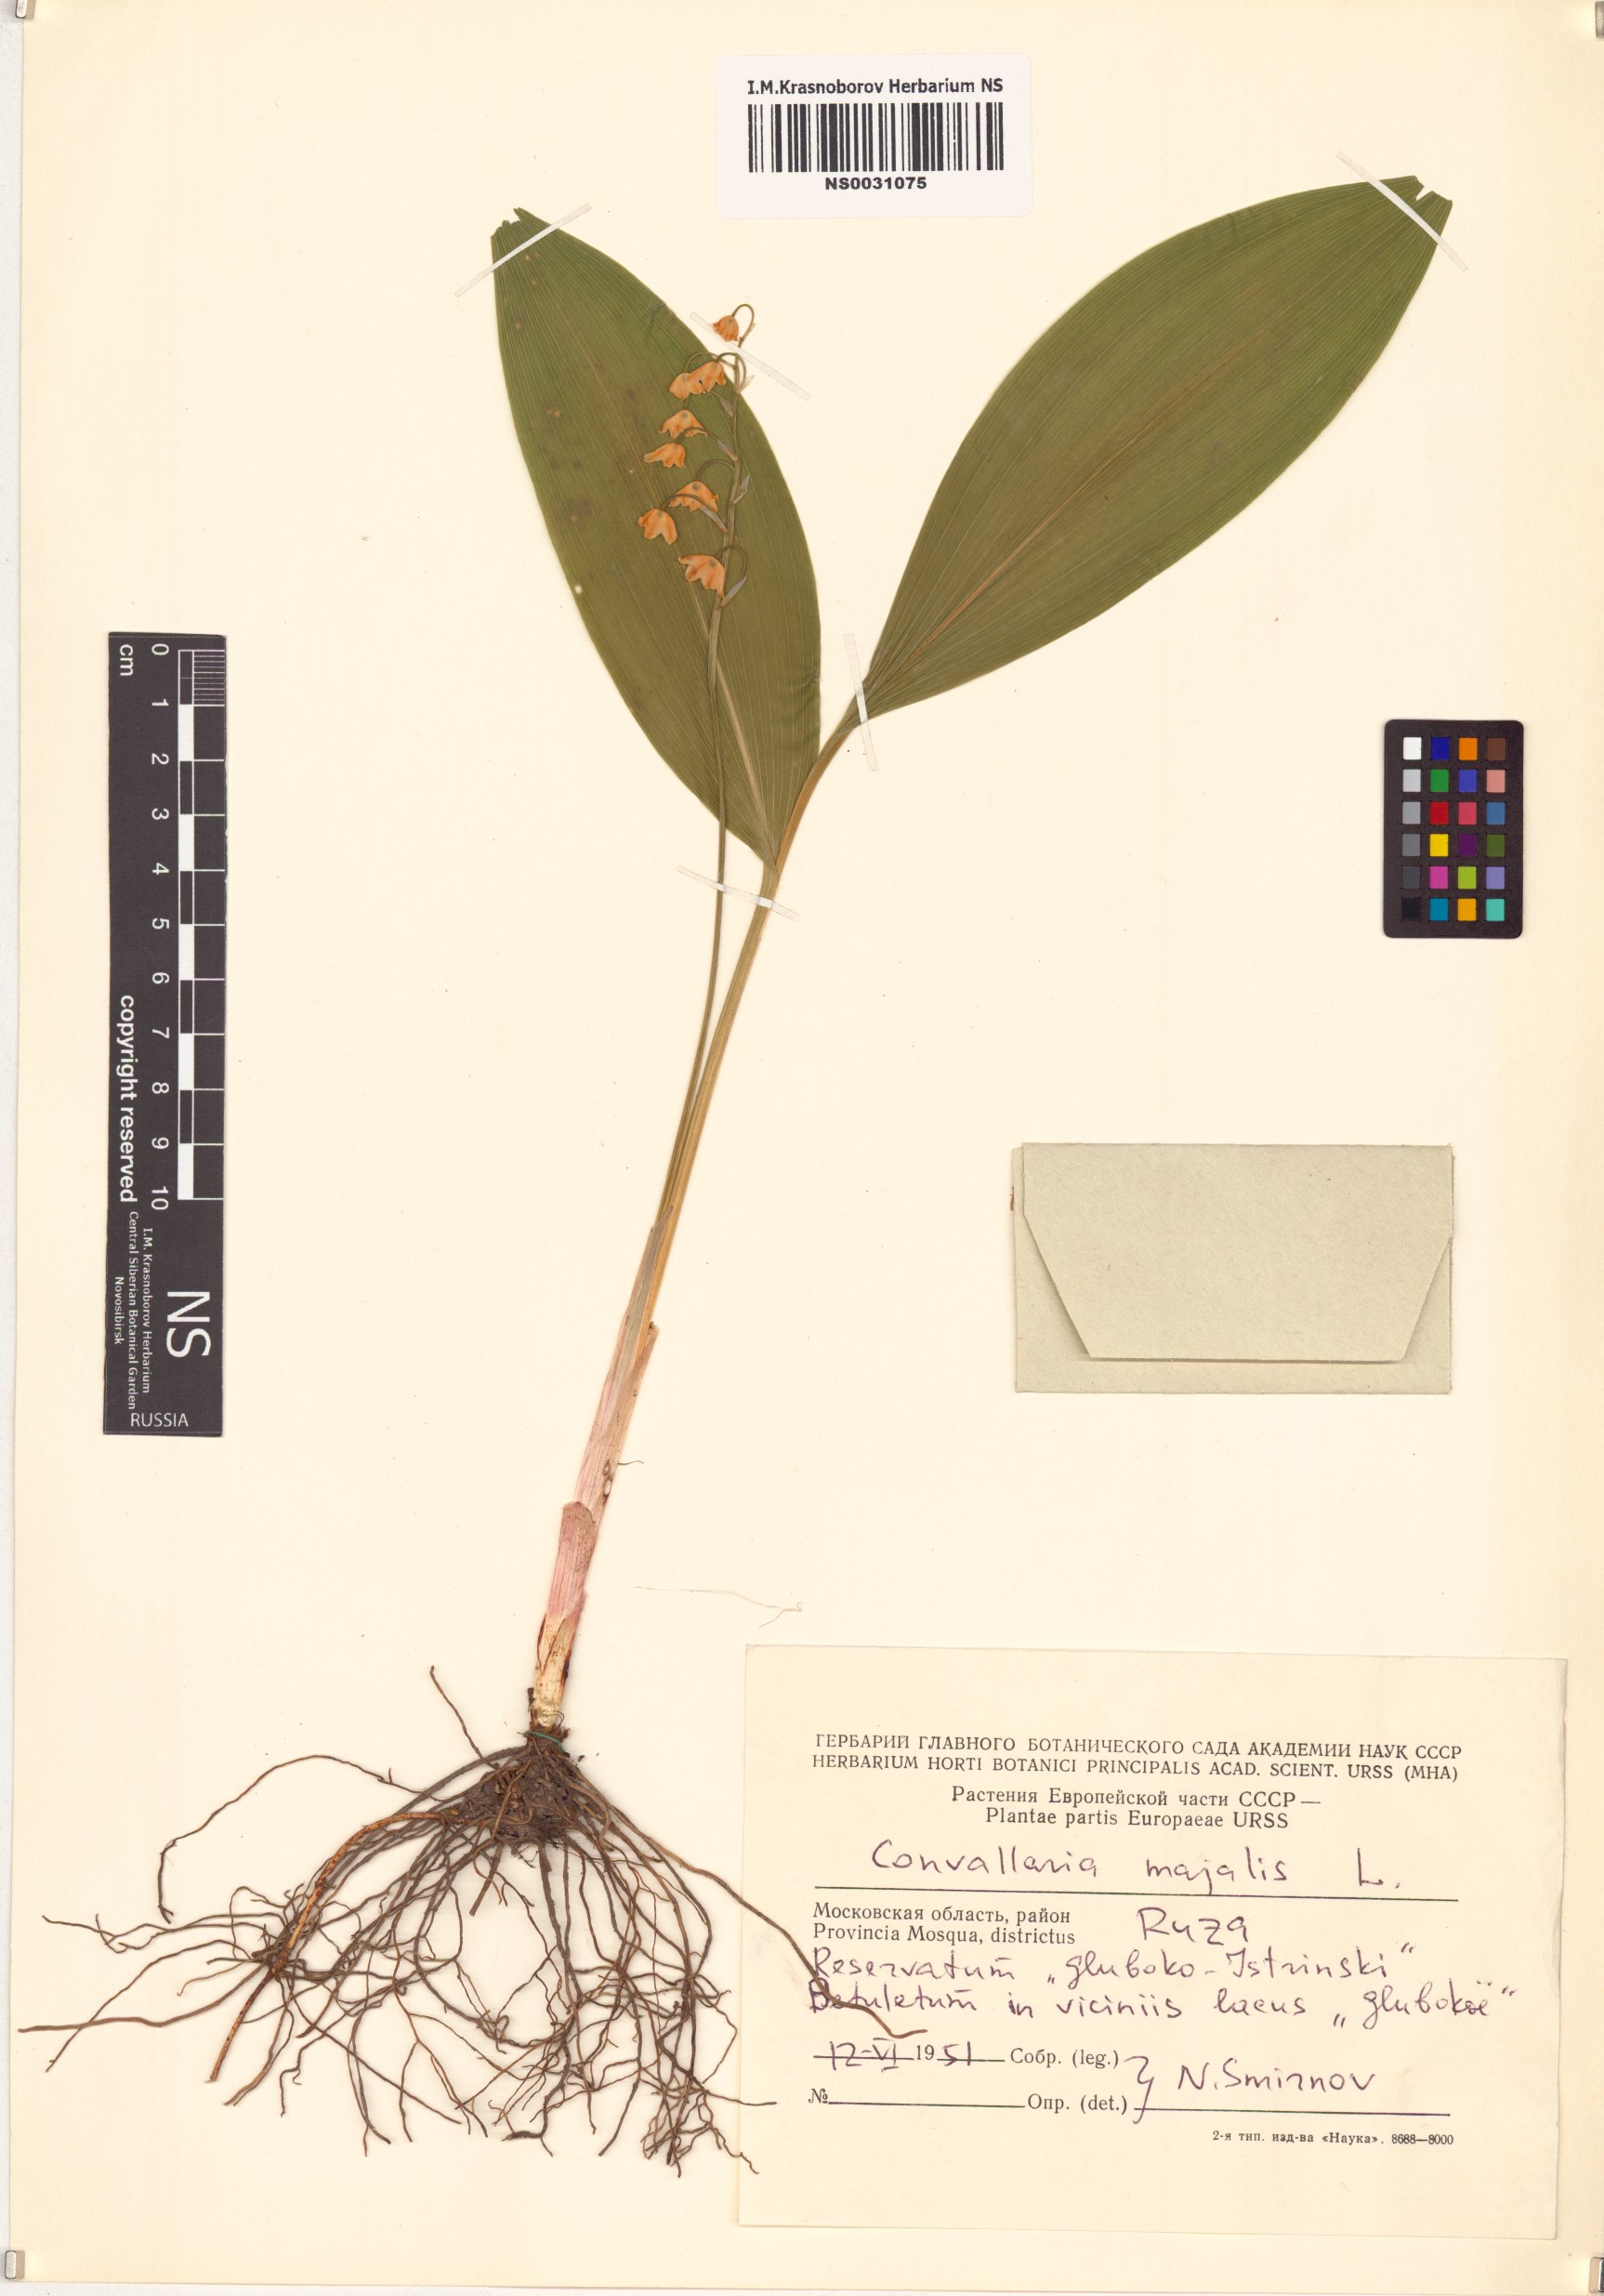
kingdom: Plantae
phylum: Tracheophyta
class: Liliopsida
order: Asparagales
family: Asparagaceae
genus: Convallaria
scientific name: Convallaria majalis
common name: Lily-of-the-valley
